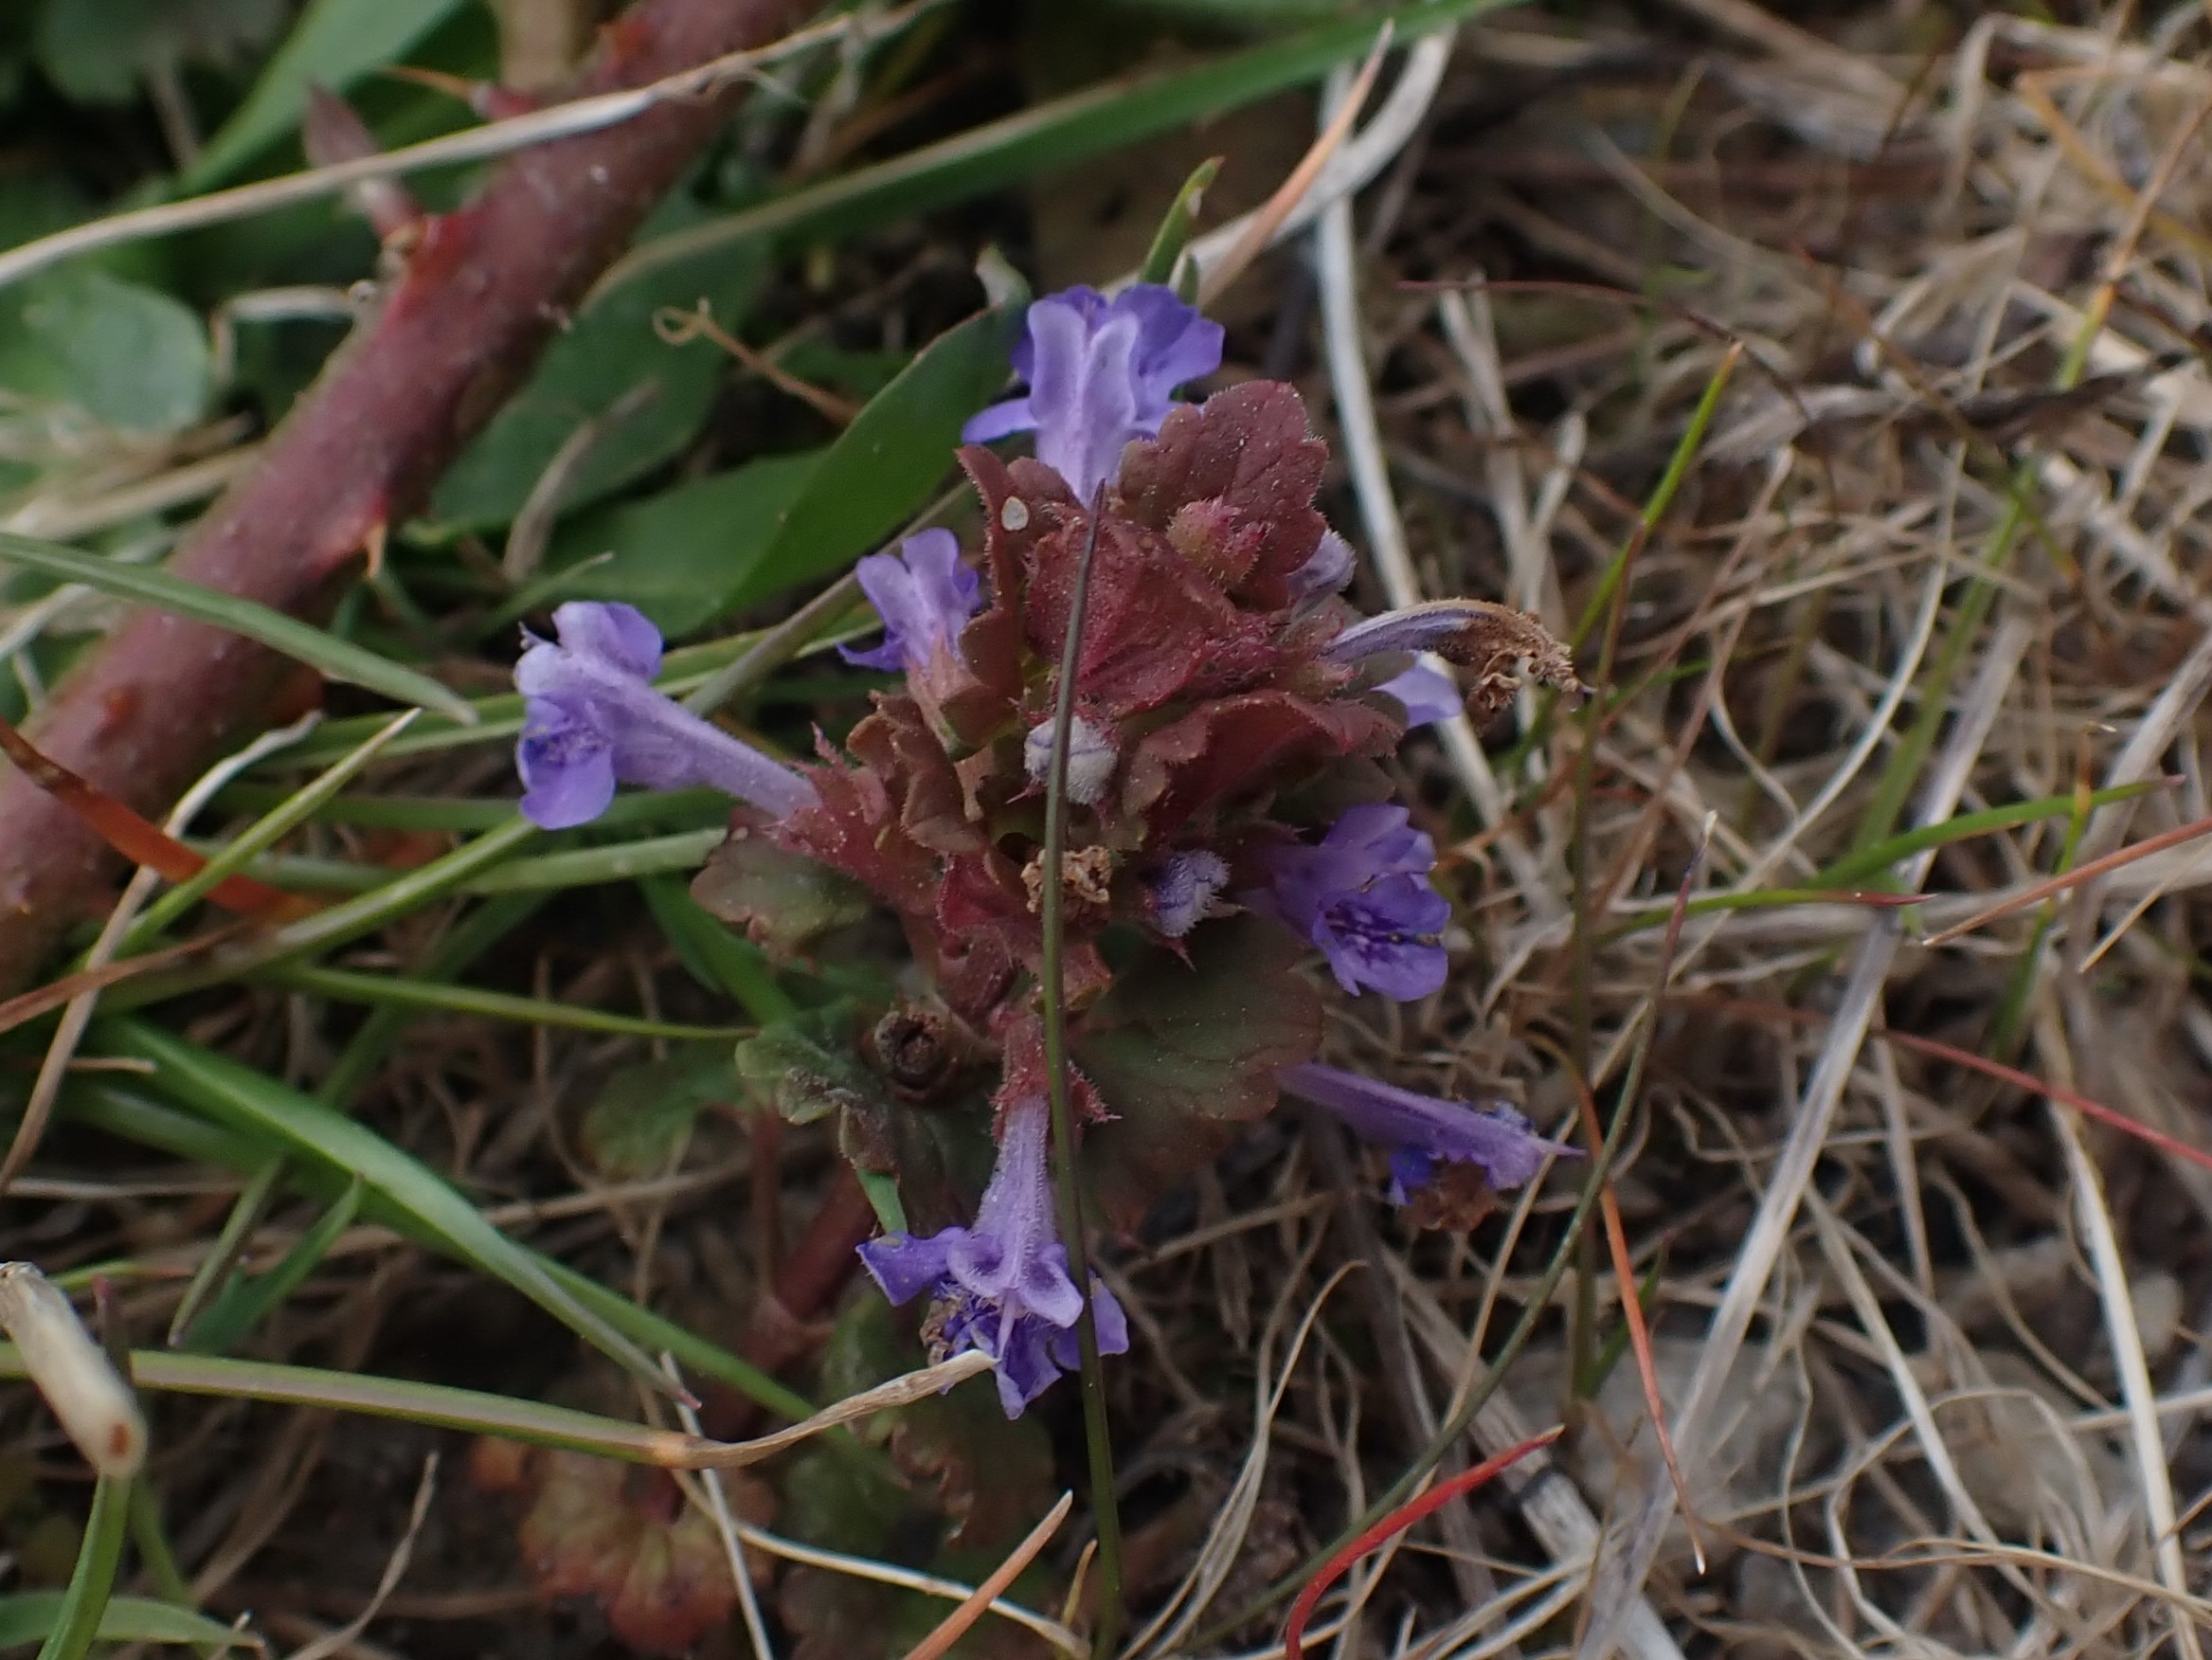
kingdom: Plantae
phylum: Tracheophyta
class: Magnoliopsida
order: Lamiales
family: Lamiaceae
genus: Glechoma
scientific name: Glechoma hederacea
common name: Korsknap
